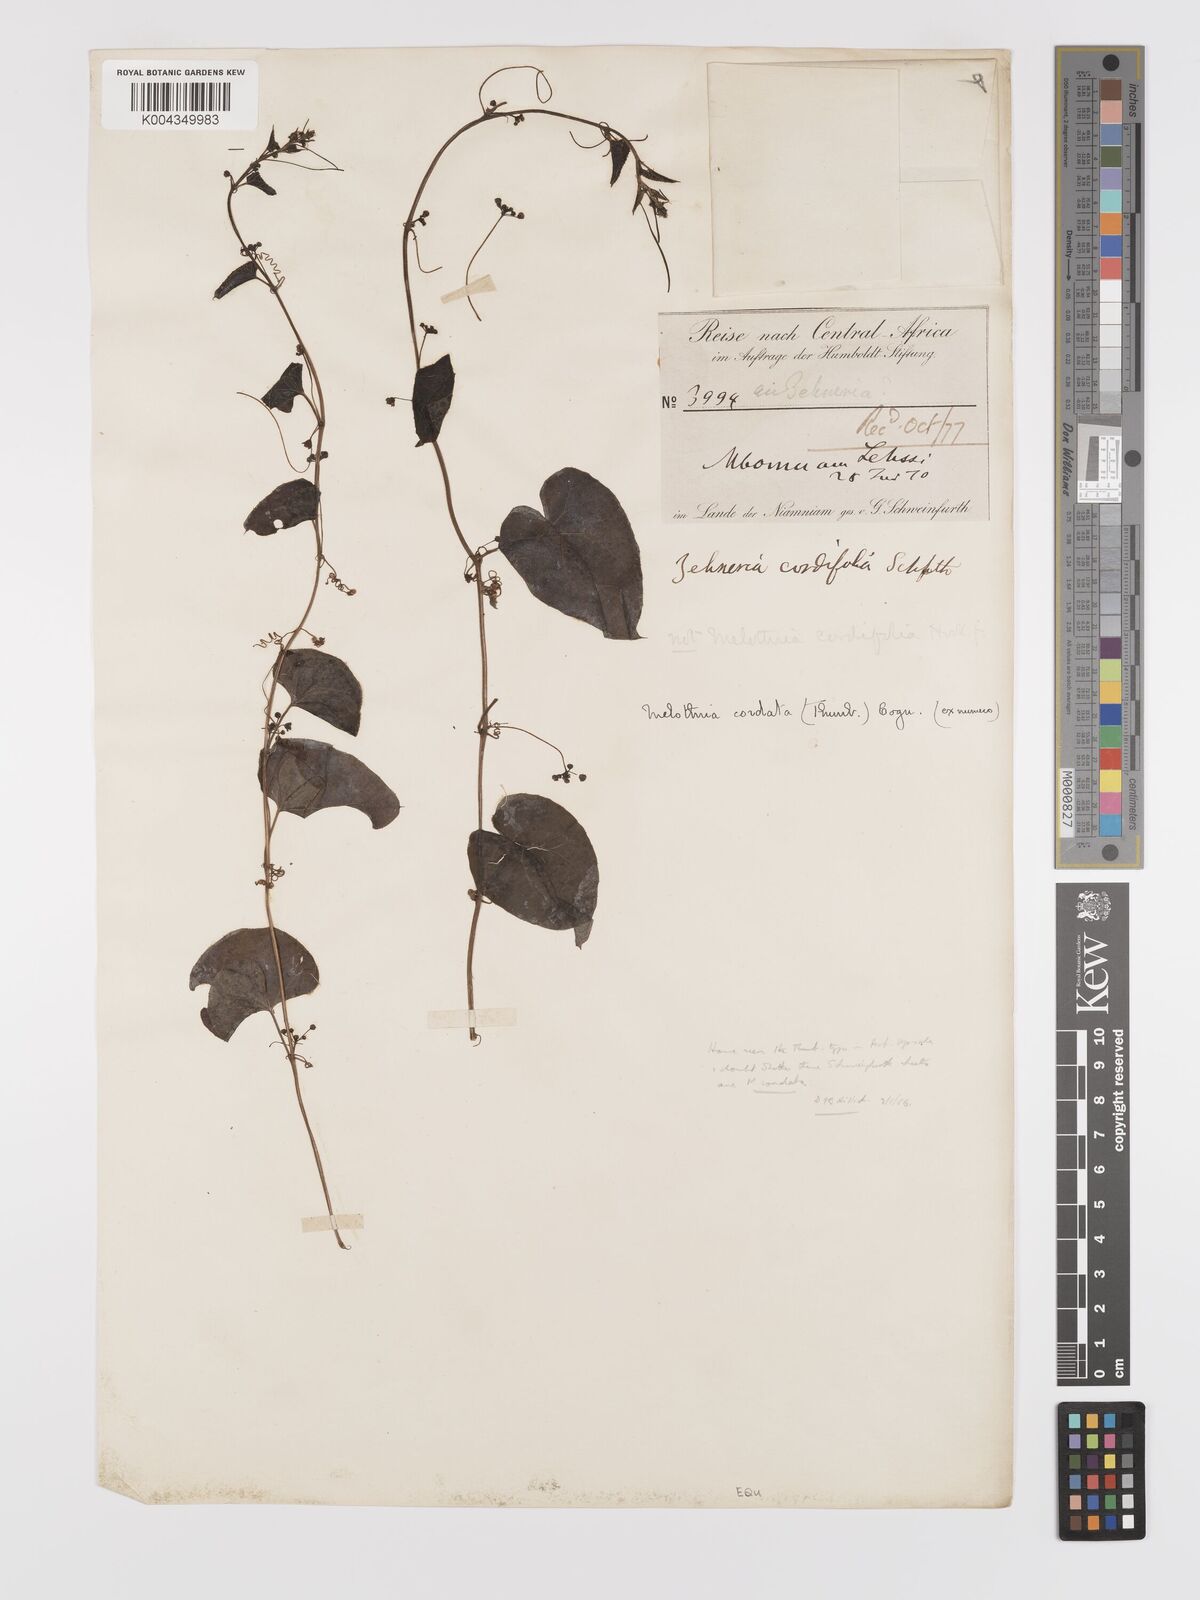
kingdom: Plantae
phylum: Tracheophyta
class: Magnoliopsida
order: Cucurbitales
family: Cucurbitaceae
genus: Zehneria
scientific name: Zehneria scabra
